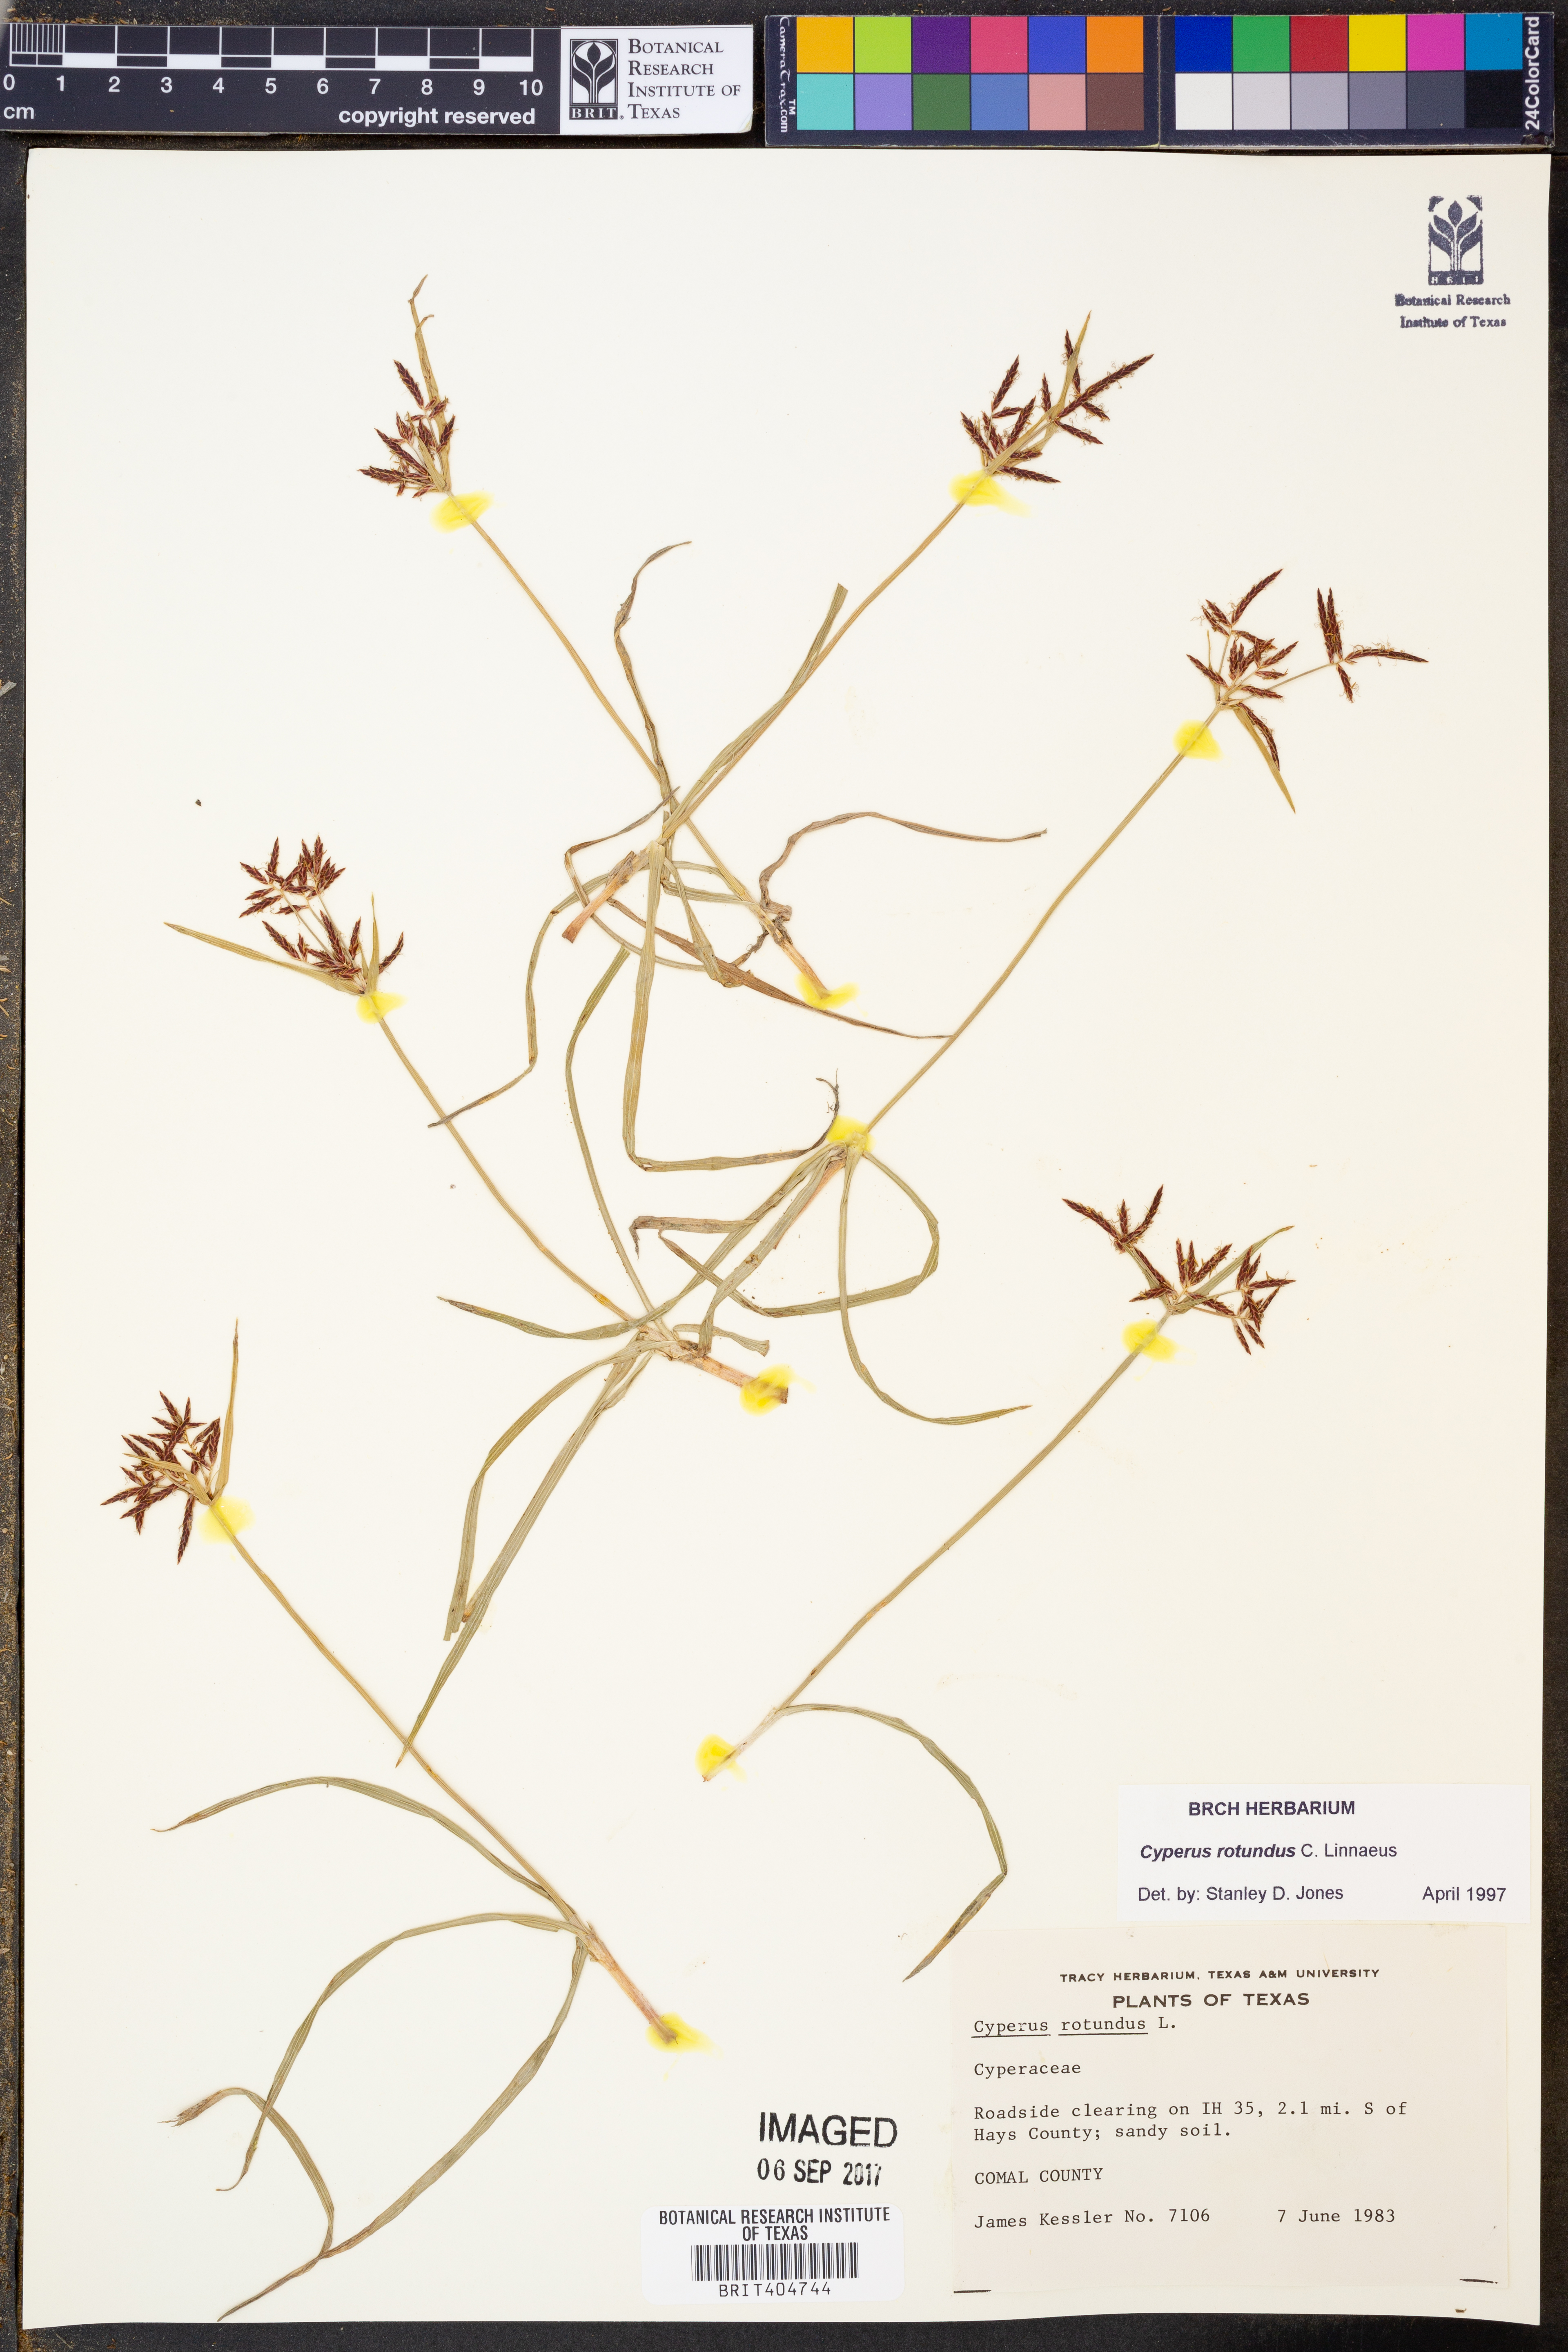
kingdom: Plantae
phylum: Tracheophyta
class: Liliopsida
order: Poales
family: Cyperaceae
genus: Cyperus
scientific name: Cyperus rotundus
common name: Nutgrass
